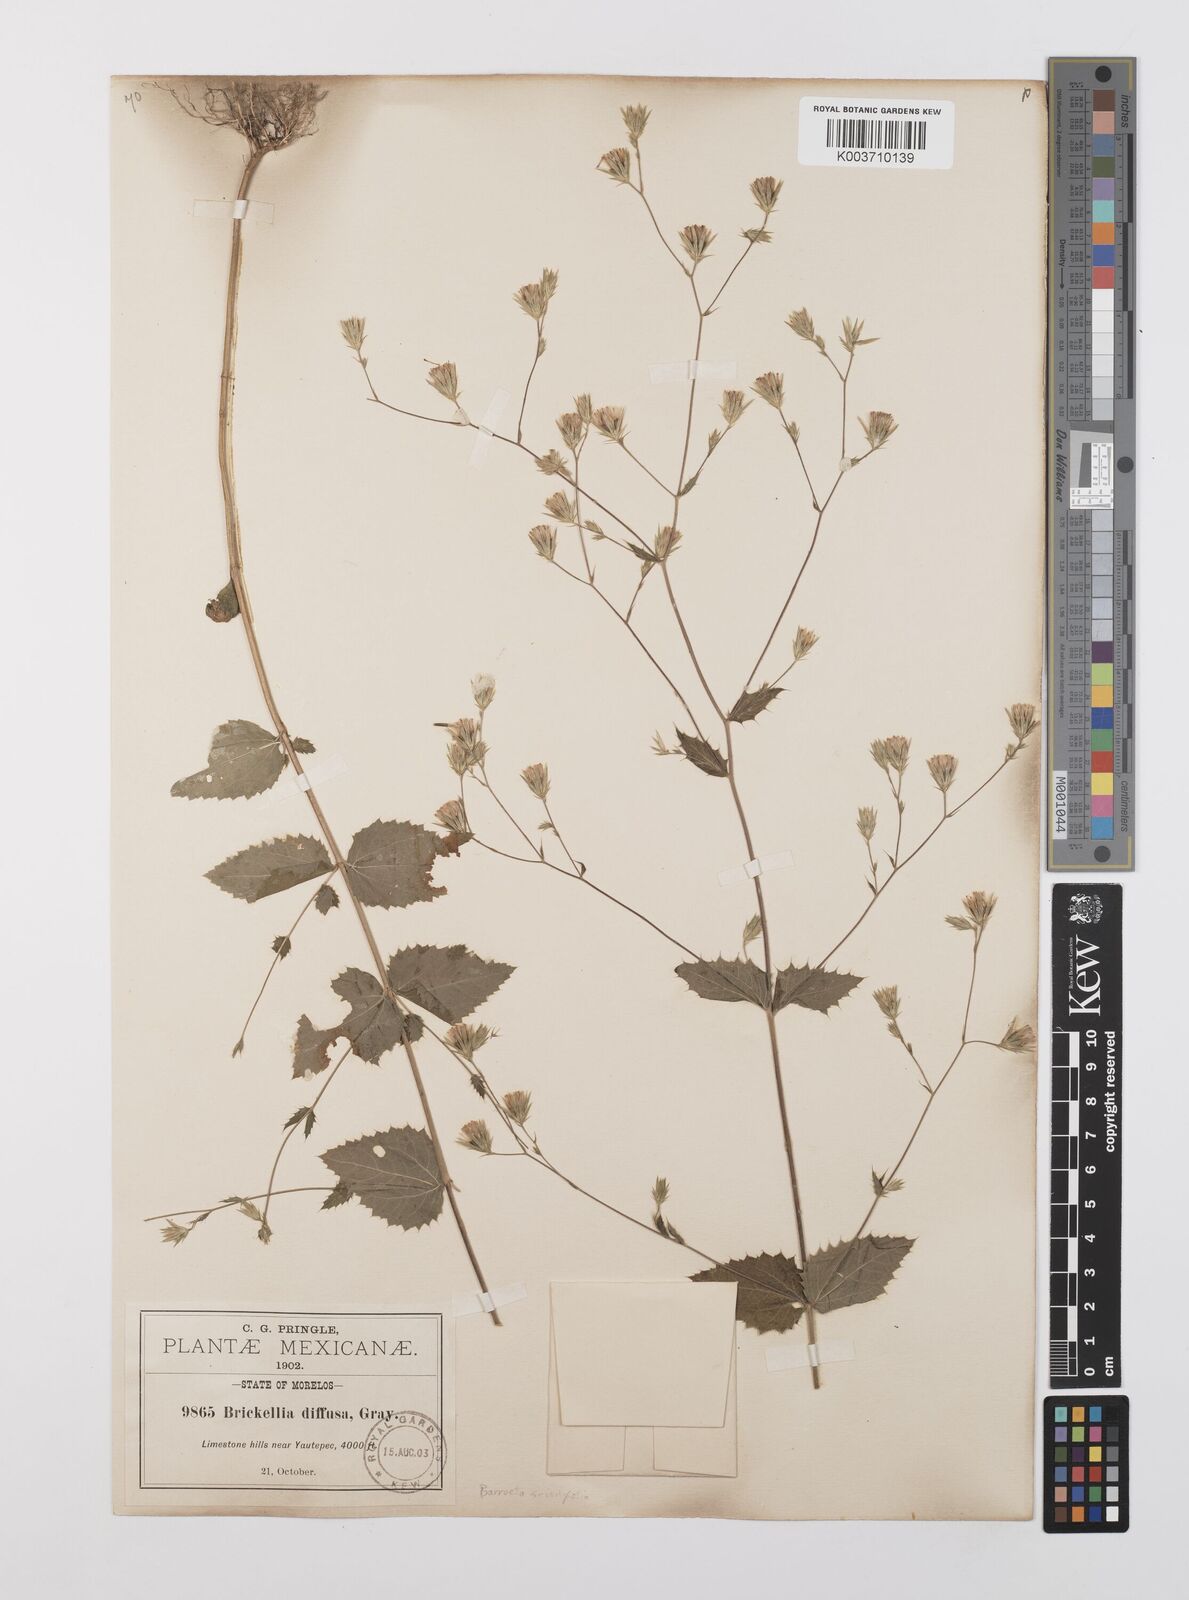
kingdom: Plantae
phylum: Tracheophyta
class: Magnoliopsida
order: Asterales
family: Asteraceae
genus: Brickellia
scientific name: Brickellia pavonii
